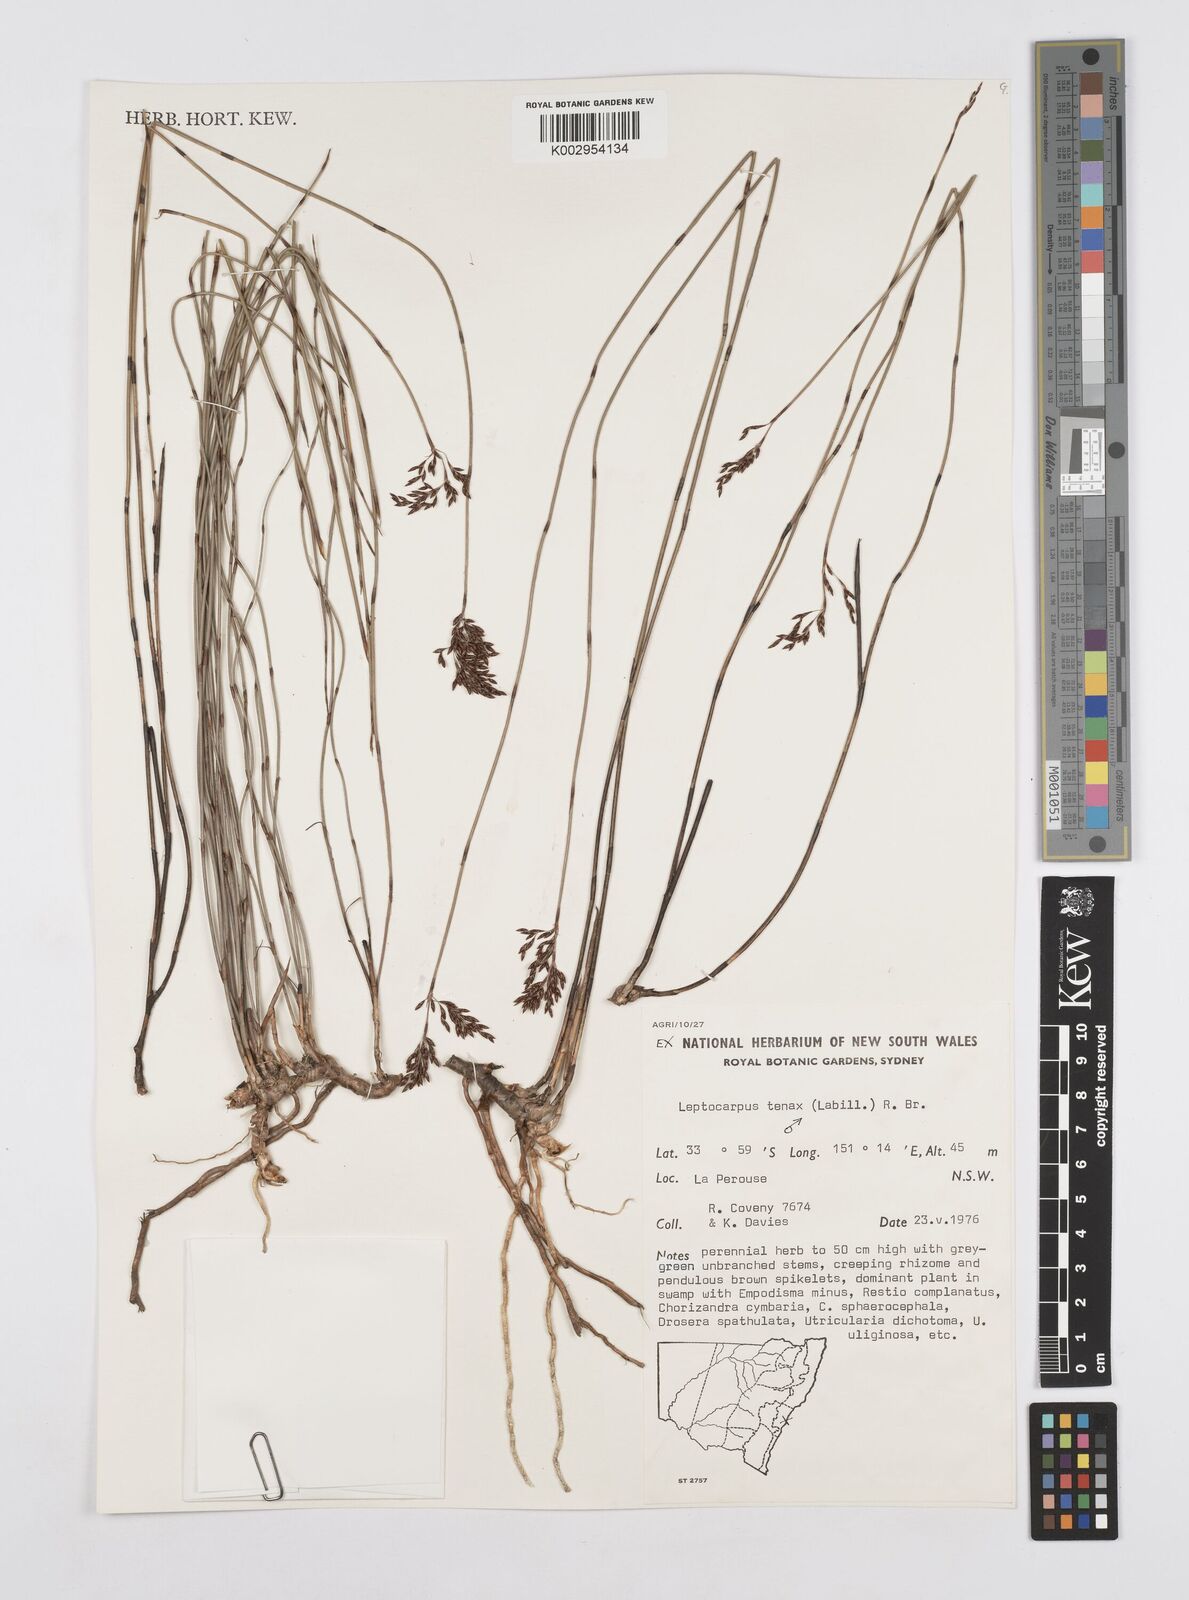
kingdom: Plantae
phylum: Tracheophyta
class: Liliopsida
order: Poales
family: Restionaceae
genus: Leptocarpus
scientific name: Leptocarpus tenax
